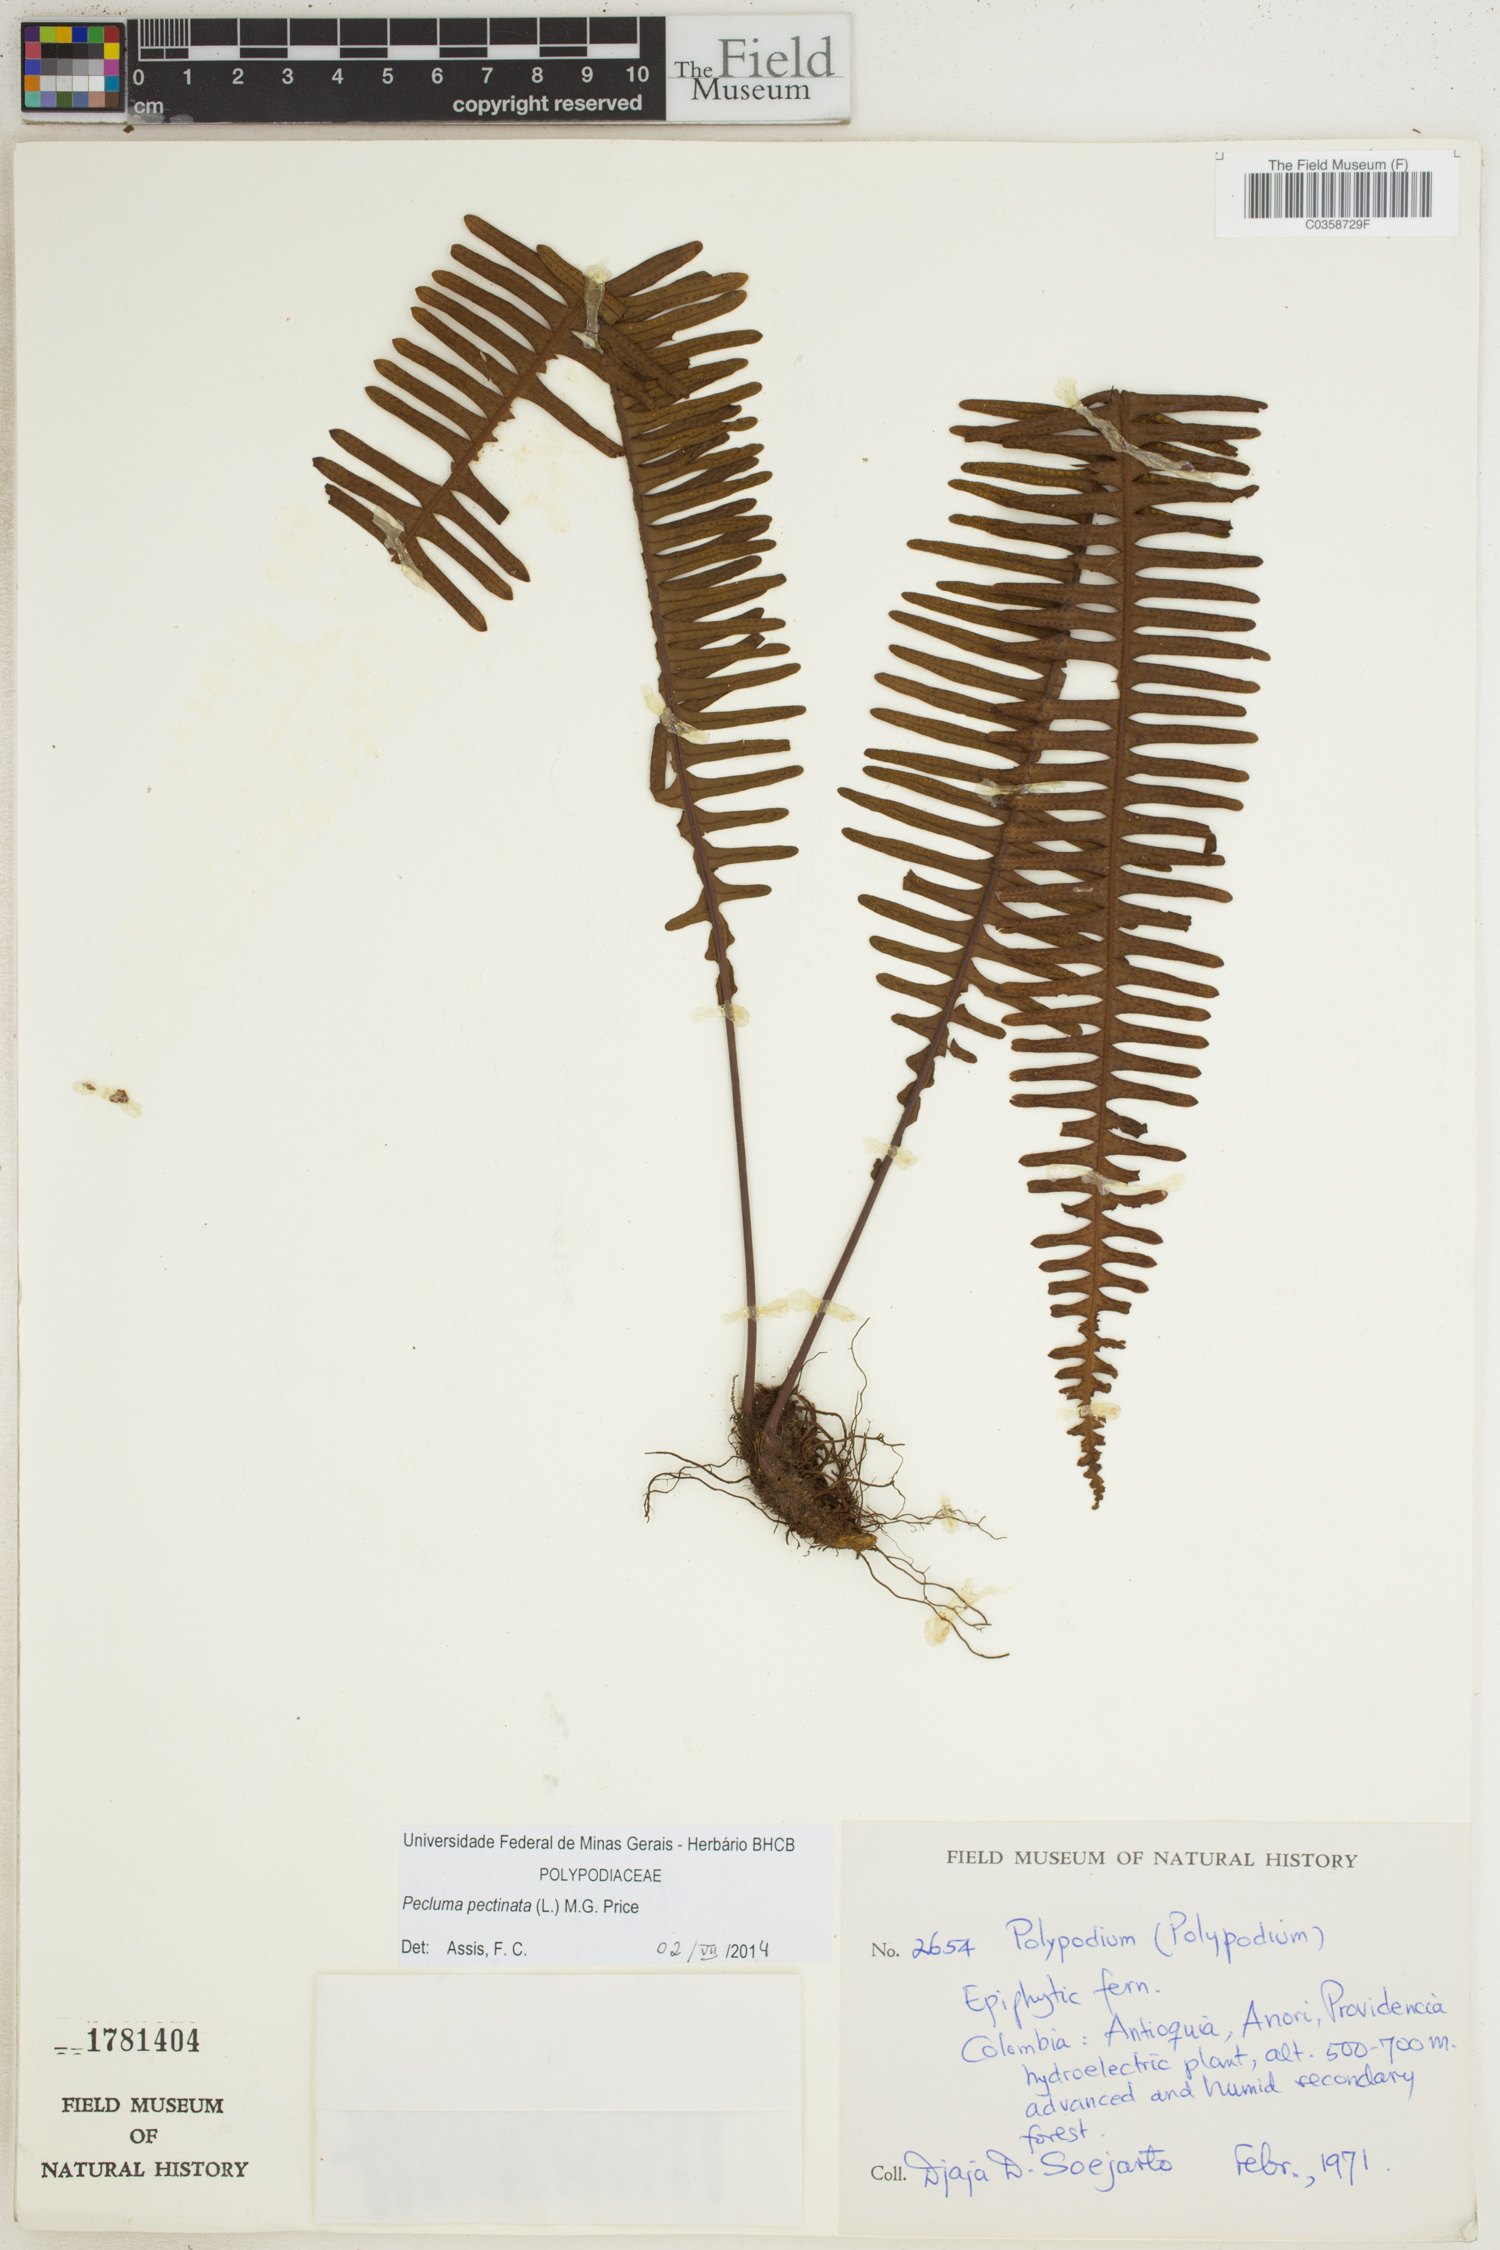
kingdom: Plantae
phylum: Tracheophyta
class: Polypodiopsida
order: Polypodiales
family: Polypodiaceae
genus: Pecluma
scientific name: Pecluma pectinata
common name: Msasa fern
